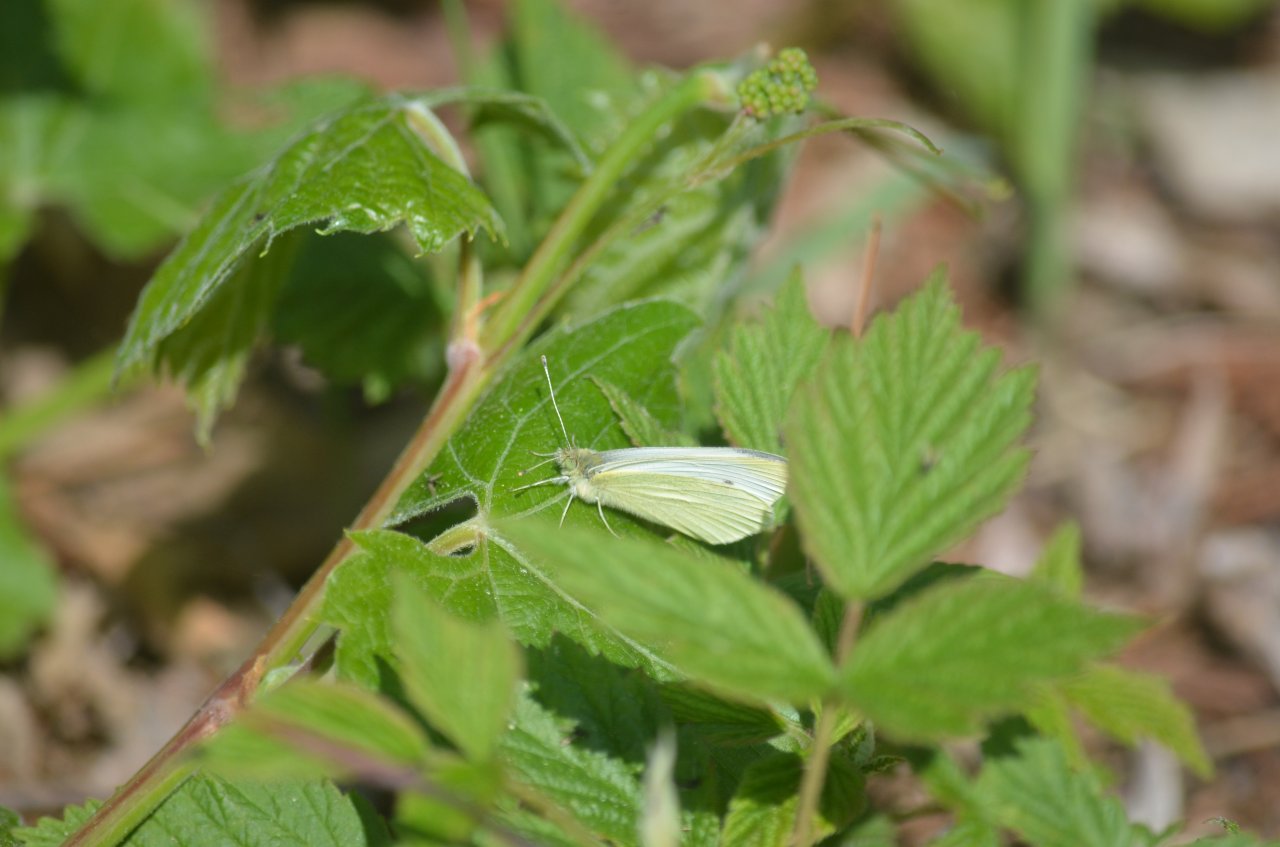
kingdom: Animalia
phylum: Arthropoda
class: Insecta
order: Lepidoptera
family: Pieridae
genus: Pieris
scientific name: Pieris rapae
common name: Cabbage White
